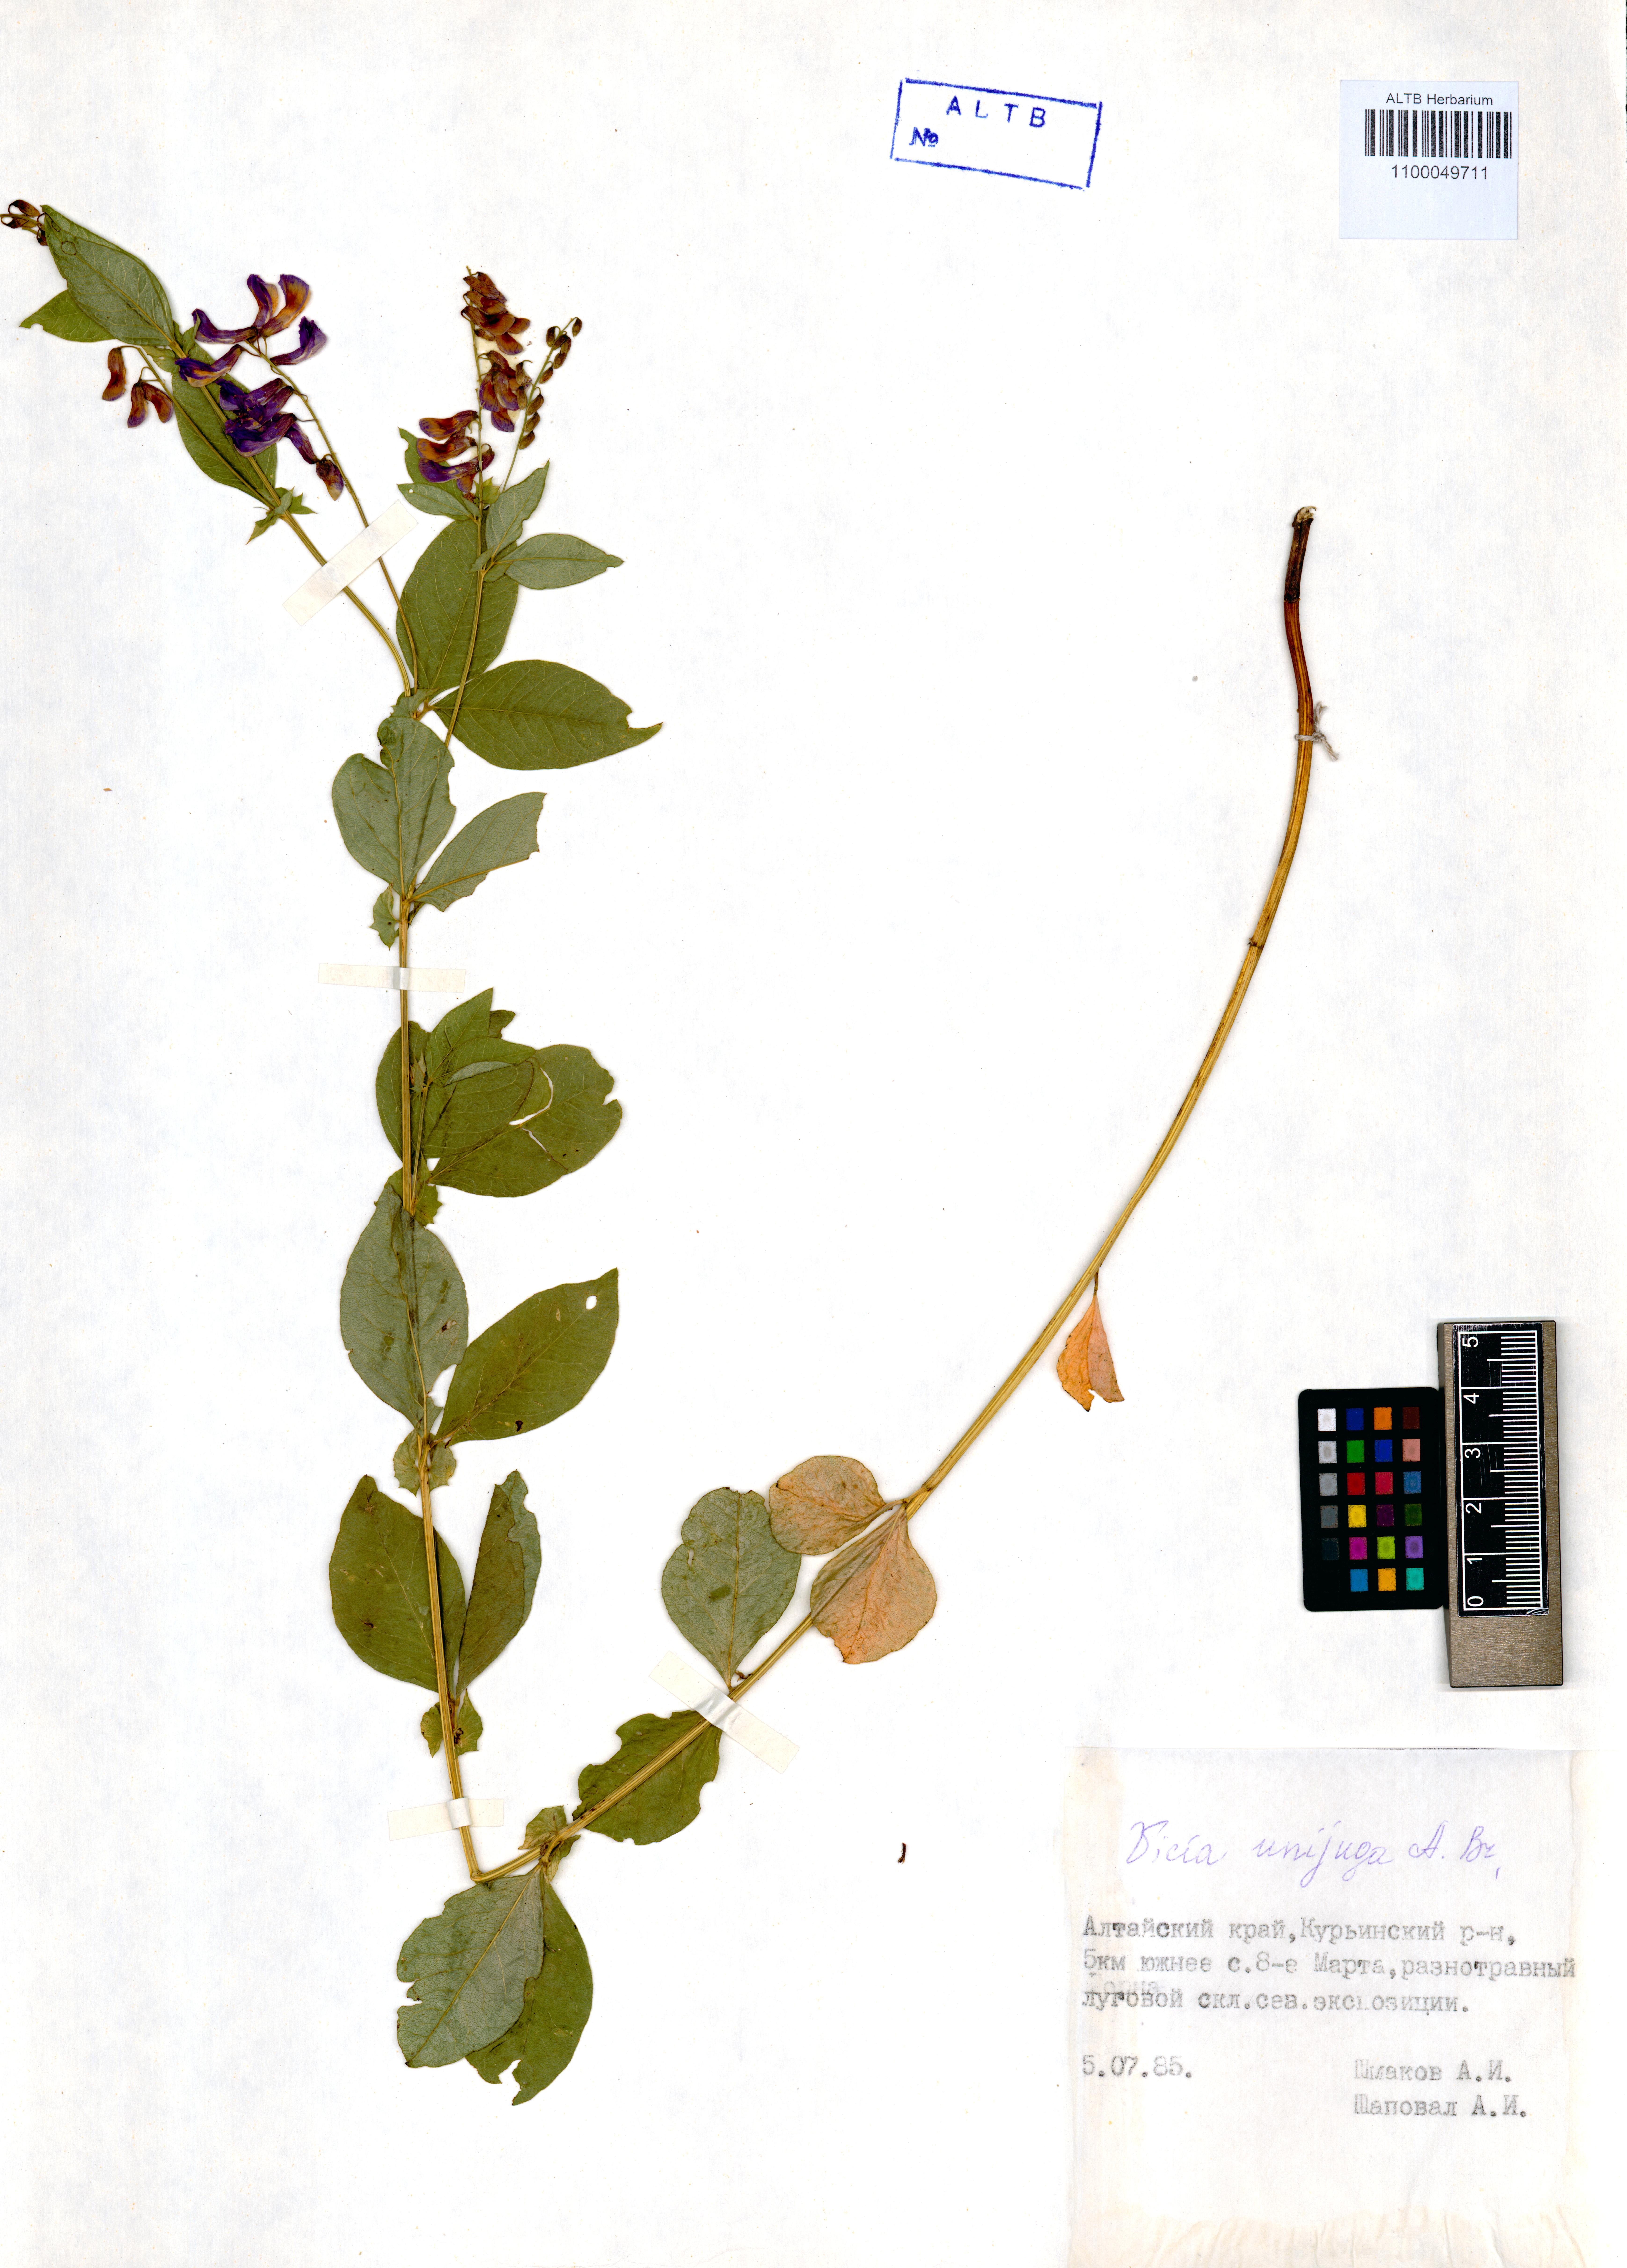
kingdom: Plantae
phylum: Tracheophyta
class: Magnoliopsida
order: Fabales
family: Fabaceae
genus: Vicia
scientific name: Vicia unijuga
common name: Two-leaf vetch
